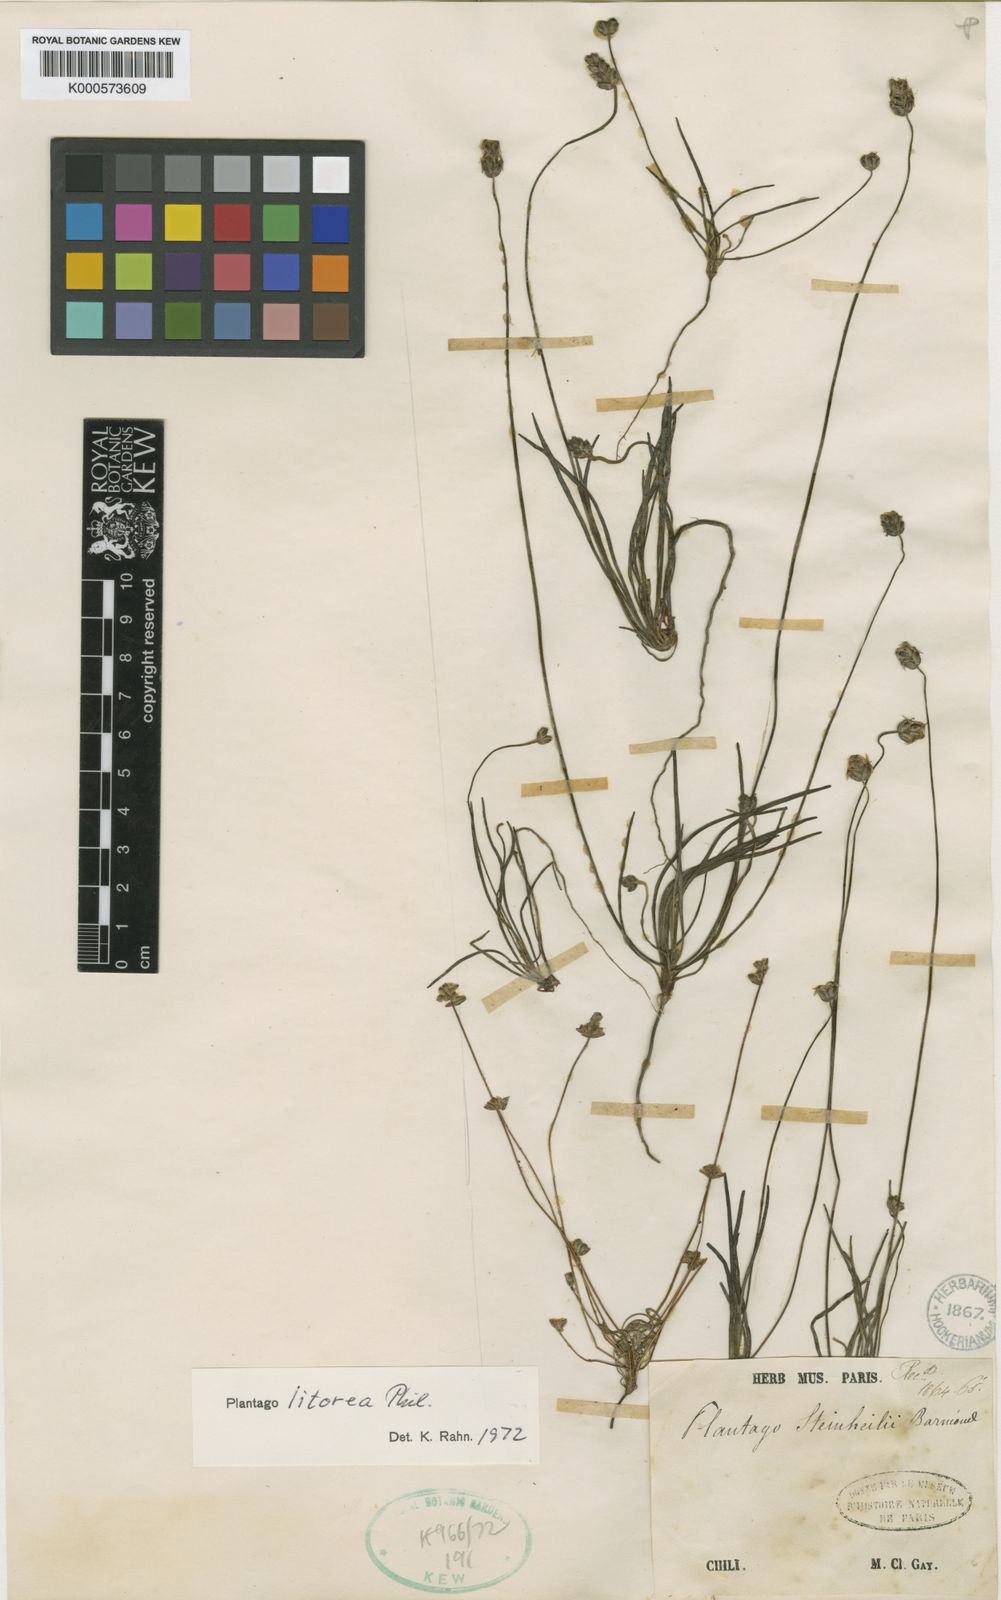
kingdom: Plantae
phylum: Tracheophyta
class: Magnoliopsida
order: Lamiales
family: Plantaginaceae
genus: Plantago
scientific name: Plantago litorea
